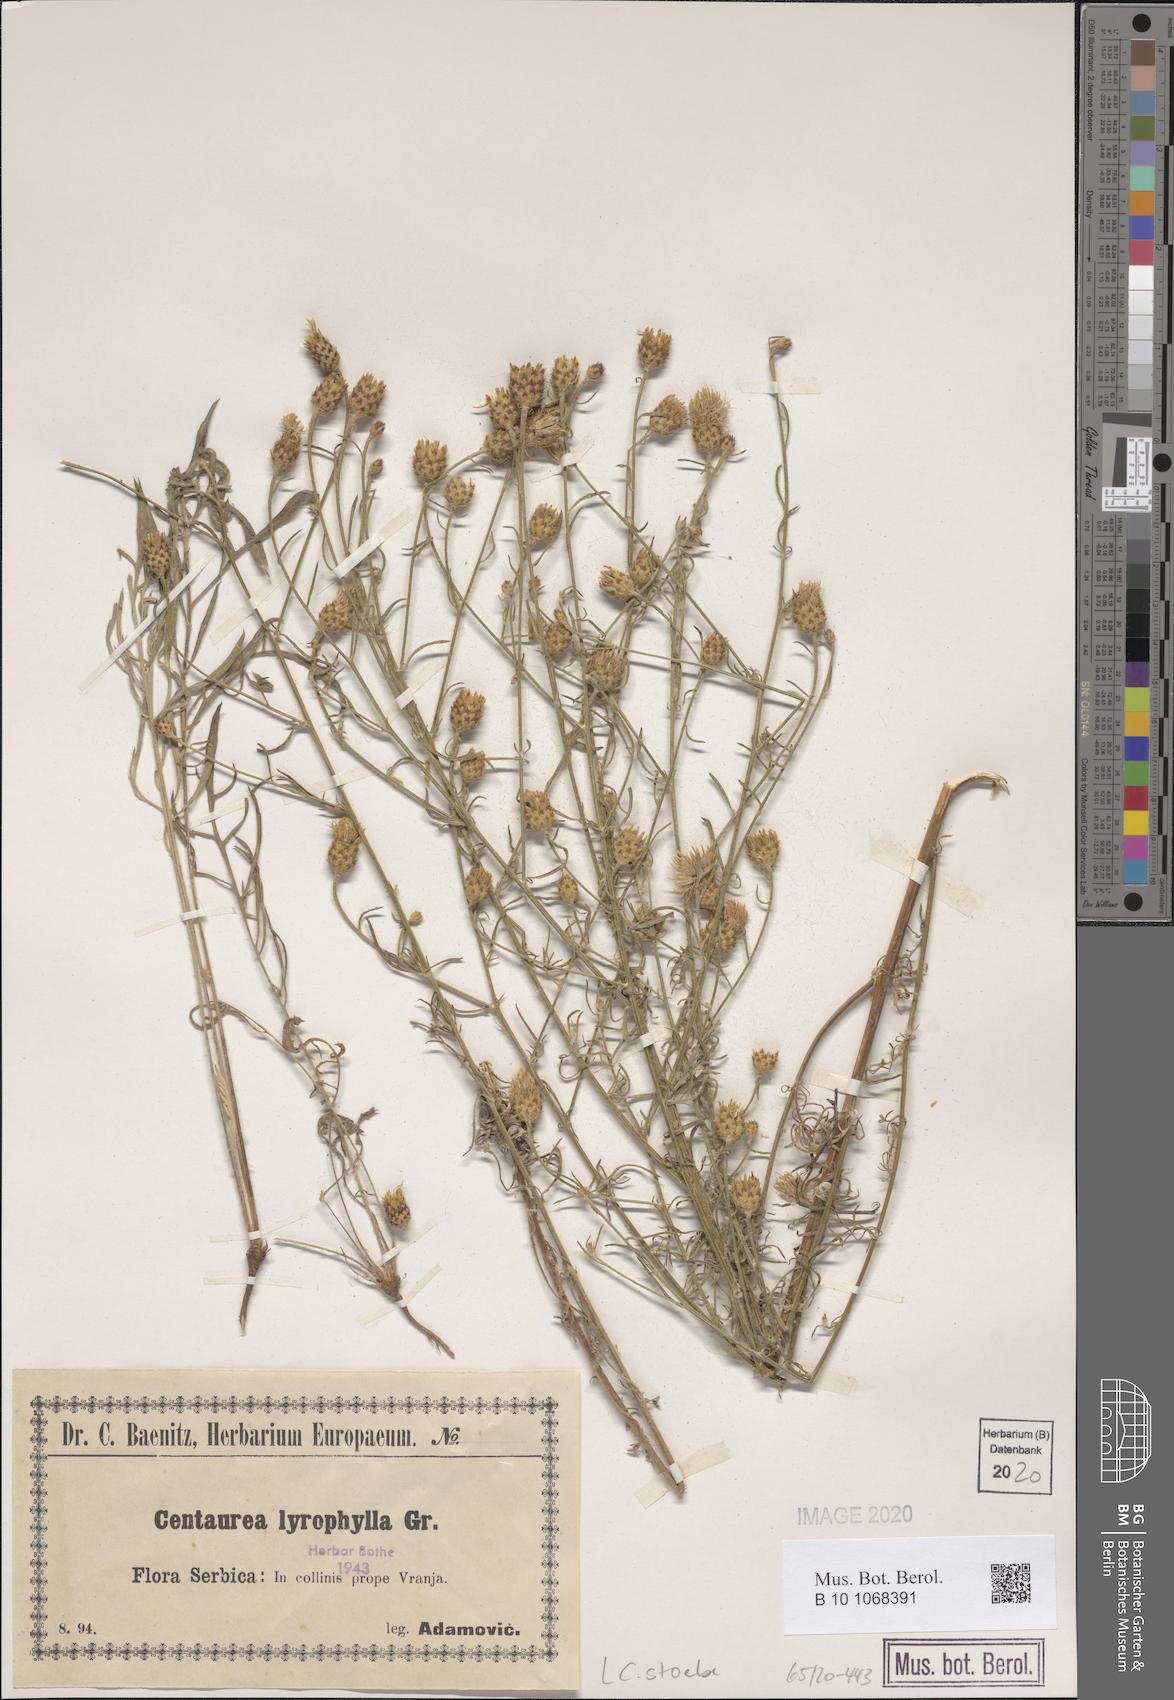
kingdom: Plantae
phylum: Tracheophyta
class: Magnoliopsida
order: Asterales
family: Asteraceae
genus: Centaurea
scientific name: Centaurea stoebe
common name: Spotted knapweed
